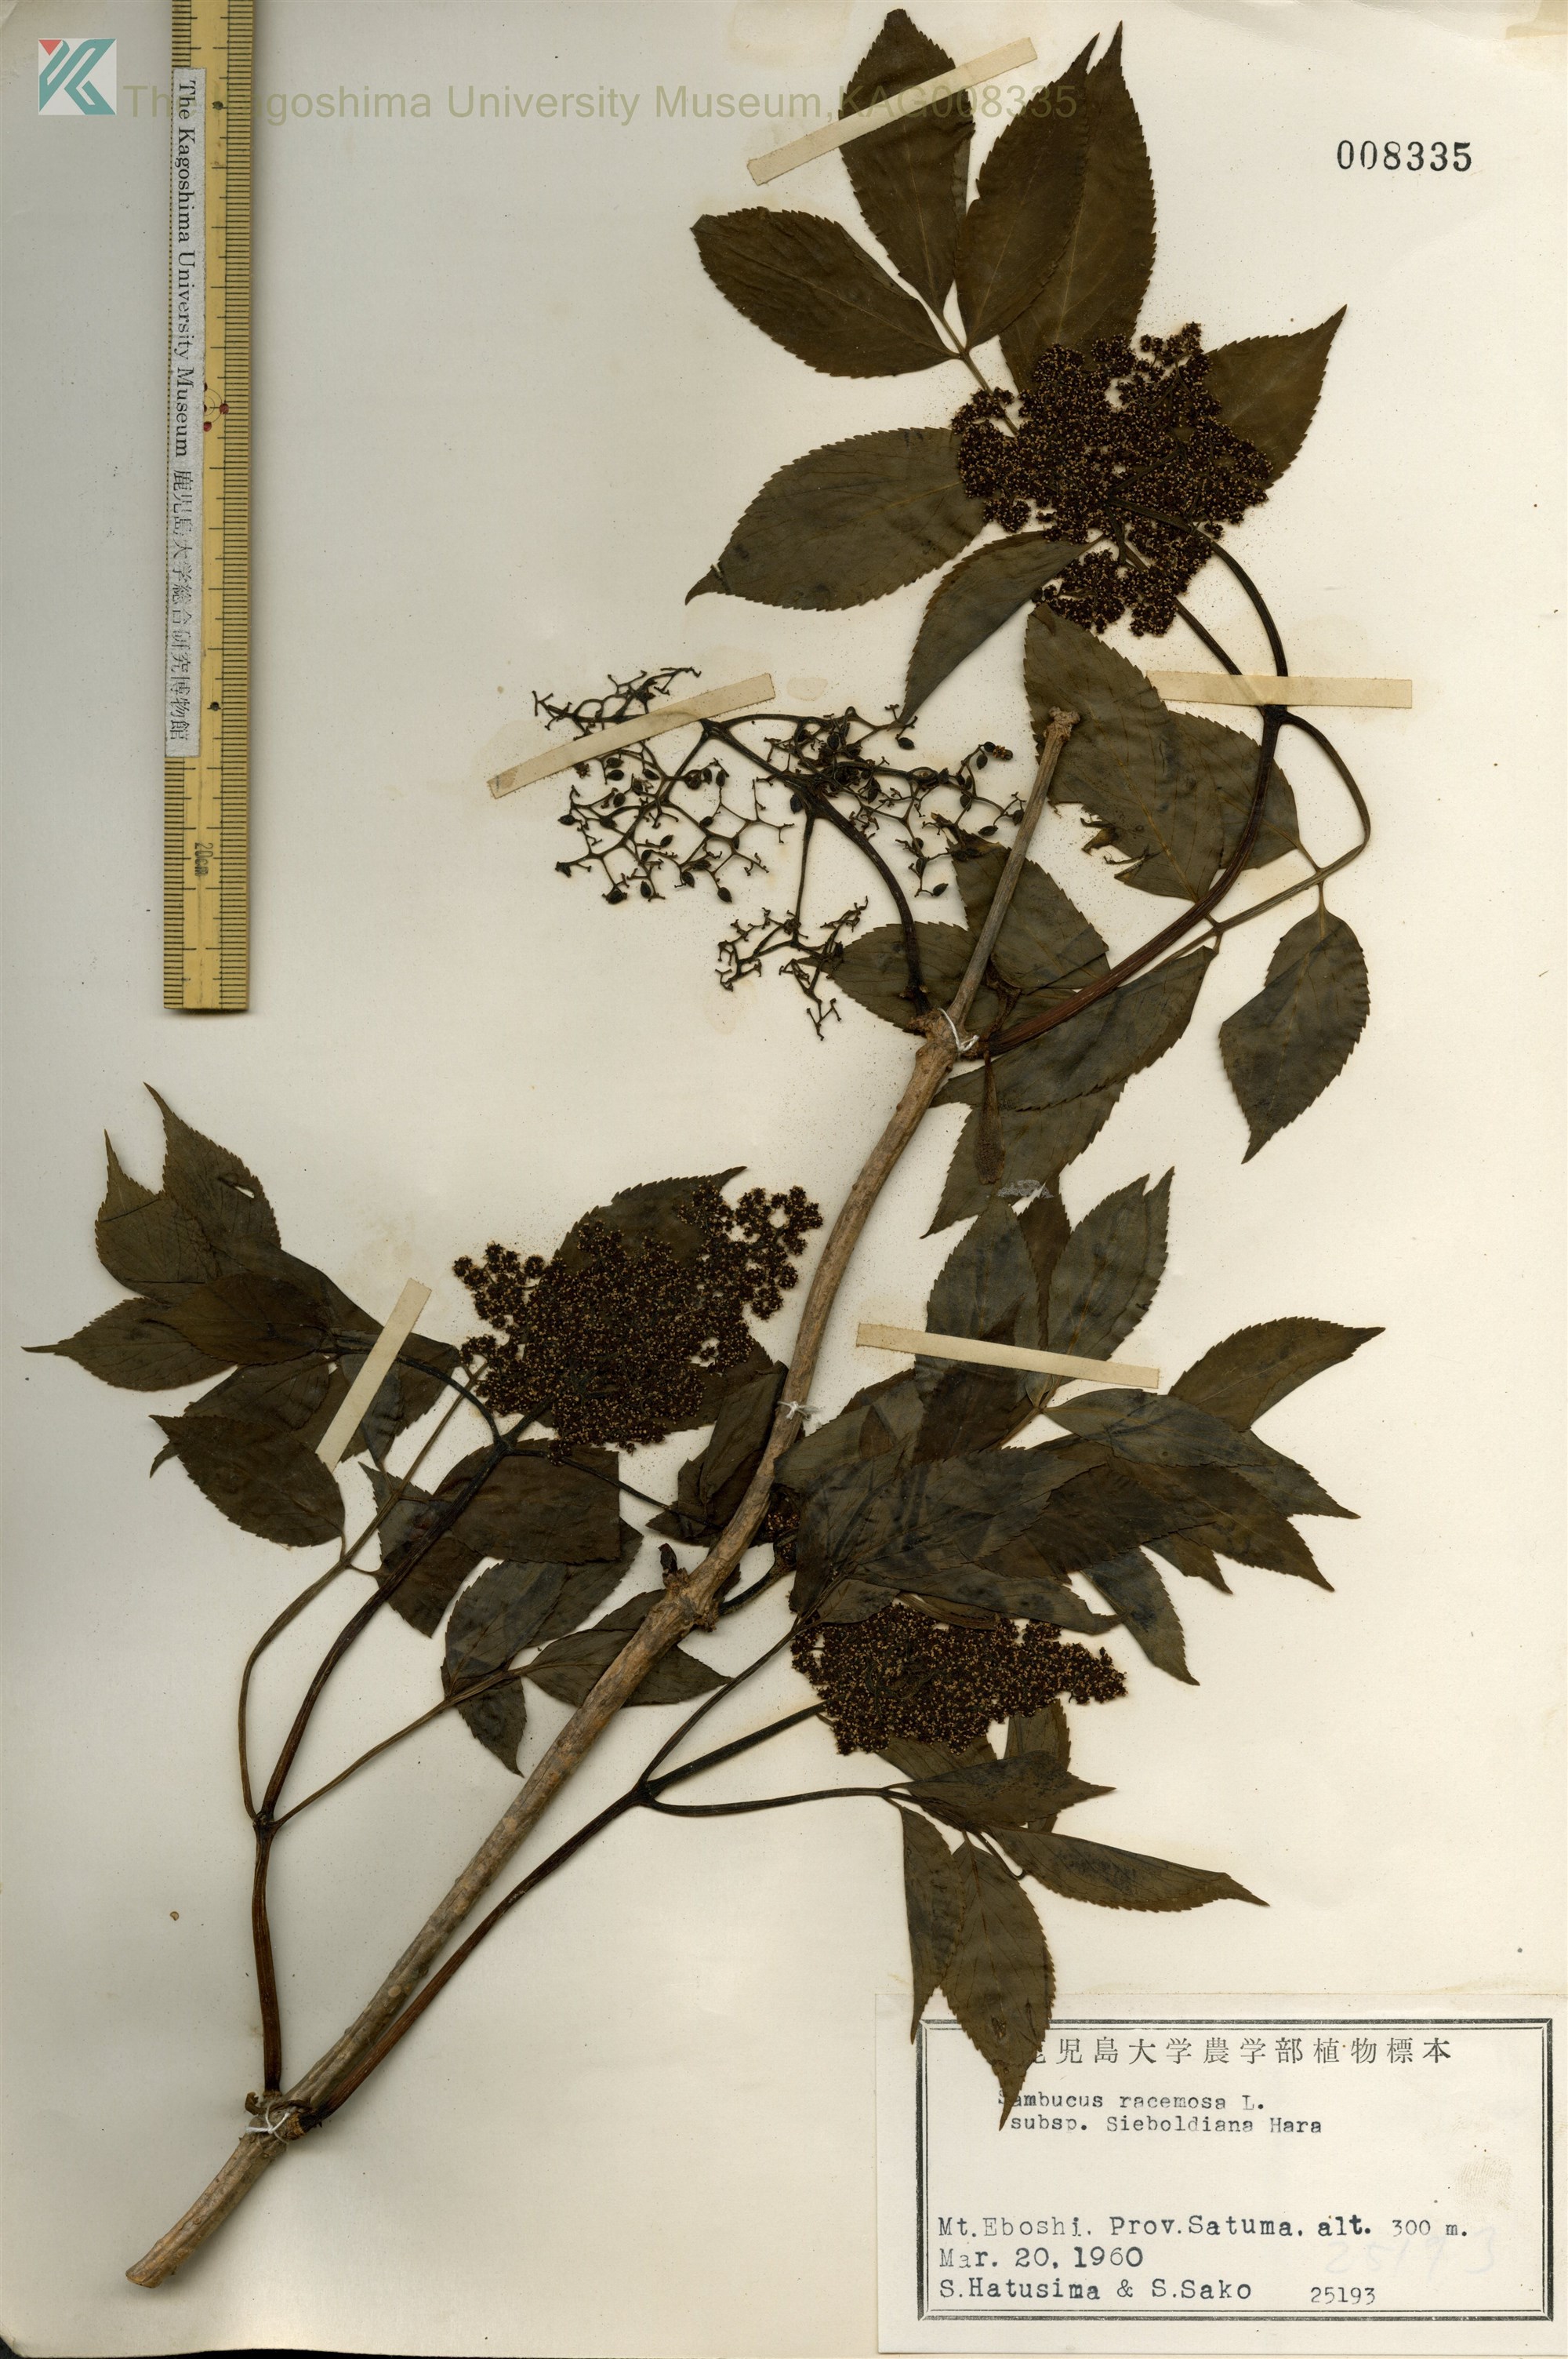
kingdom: Plantae
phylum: Tracheophyta
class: Magnoliopsida
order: Dipsacales
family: Viburnaceae
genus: Sambucus
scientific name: Sambucus sieboldiana
